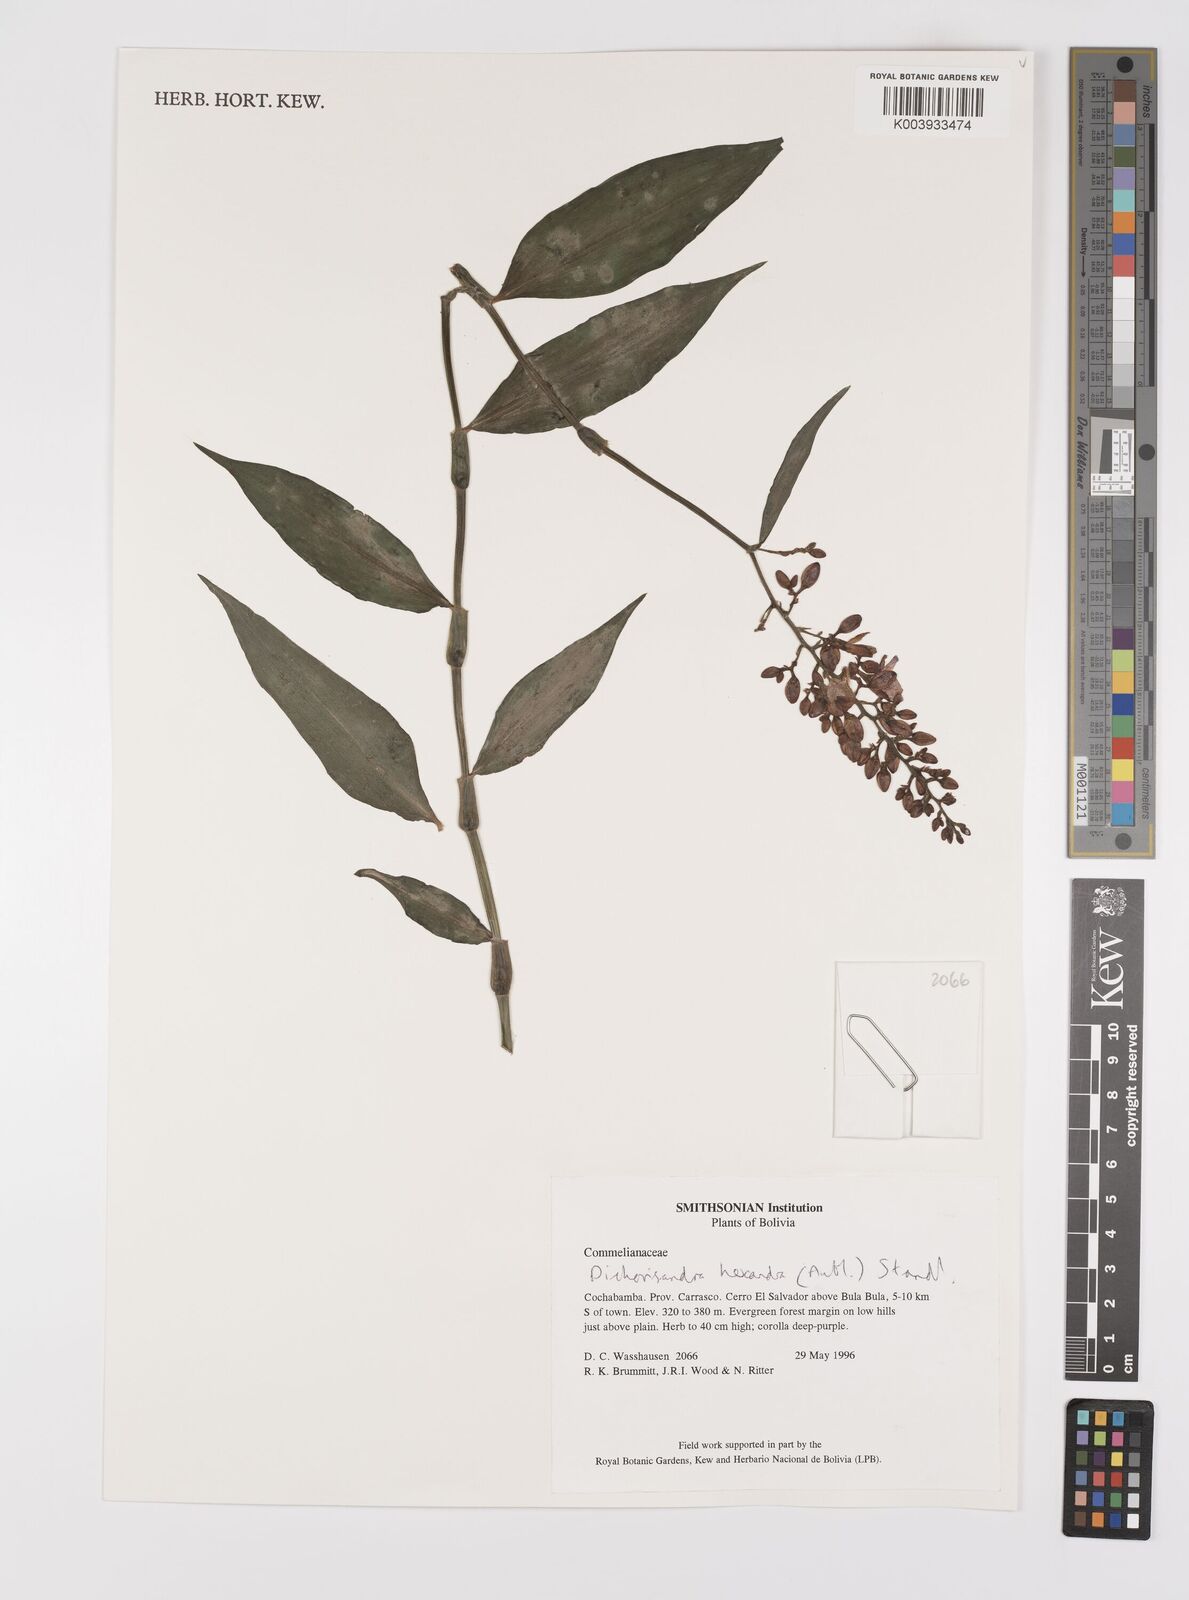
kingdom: Plantae
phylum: Tracheophyta
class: Liliopsida
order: Commelinales
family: Commelinaceae
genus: Dichorisandra
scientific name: Dichorisandra hexandra
